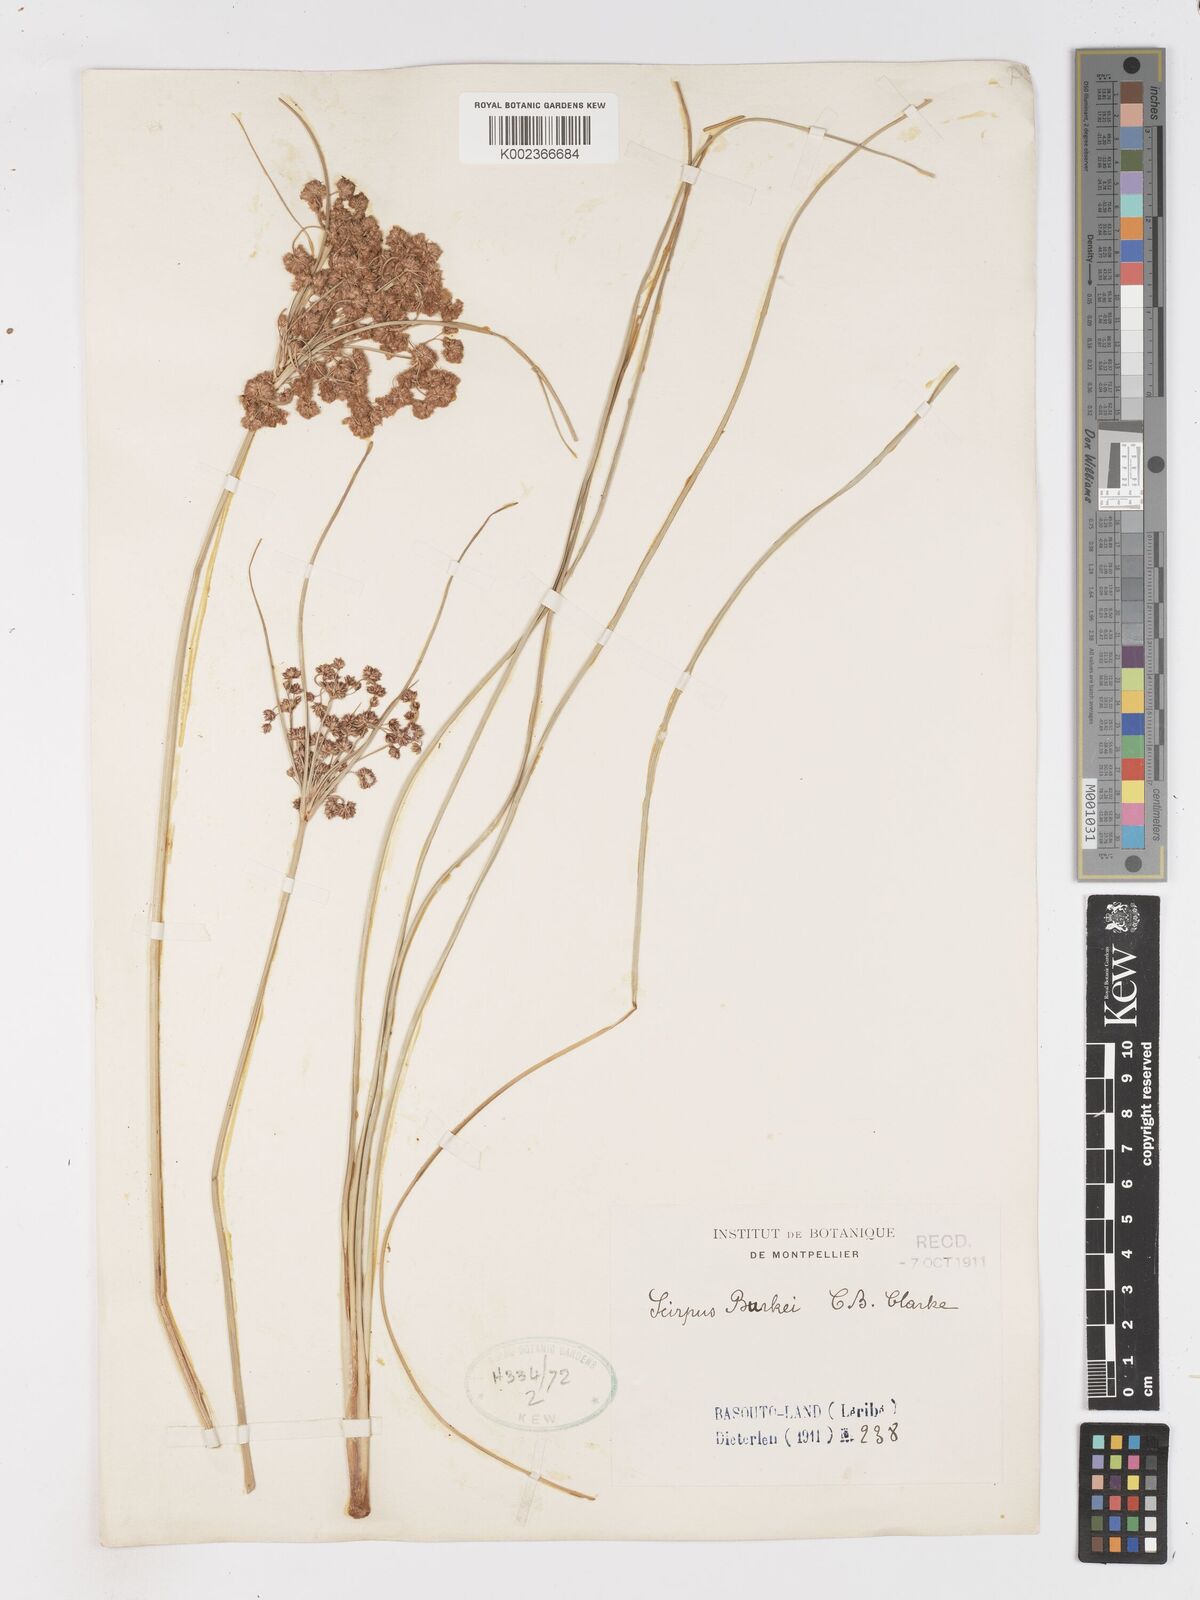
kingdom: Plantae
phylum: Tracheophyta
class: Liliopsida
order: Poales
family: Cyperaceae
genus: Scirpoides
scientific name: Scirpoides burkei
